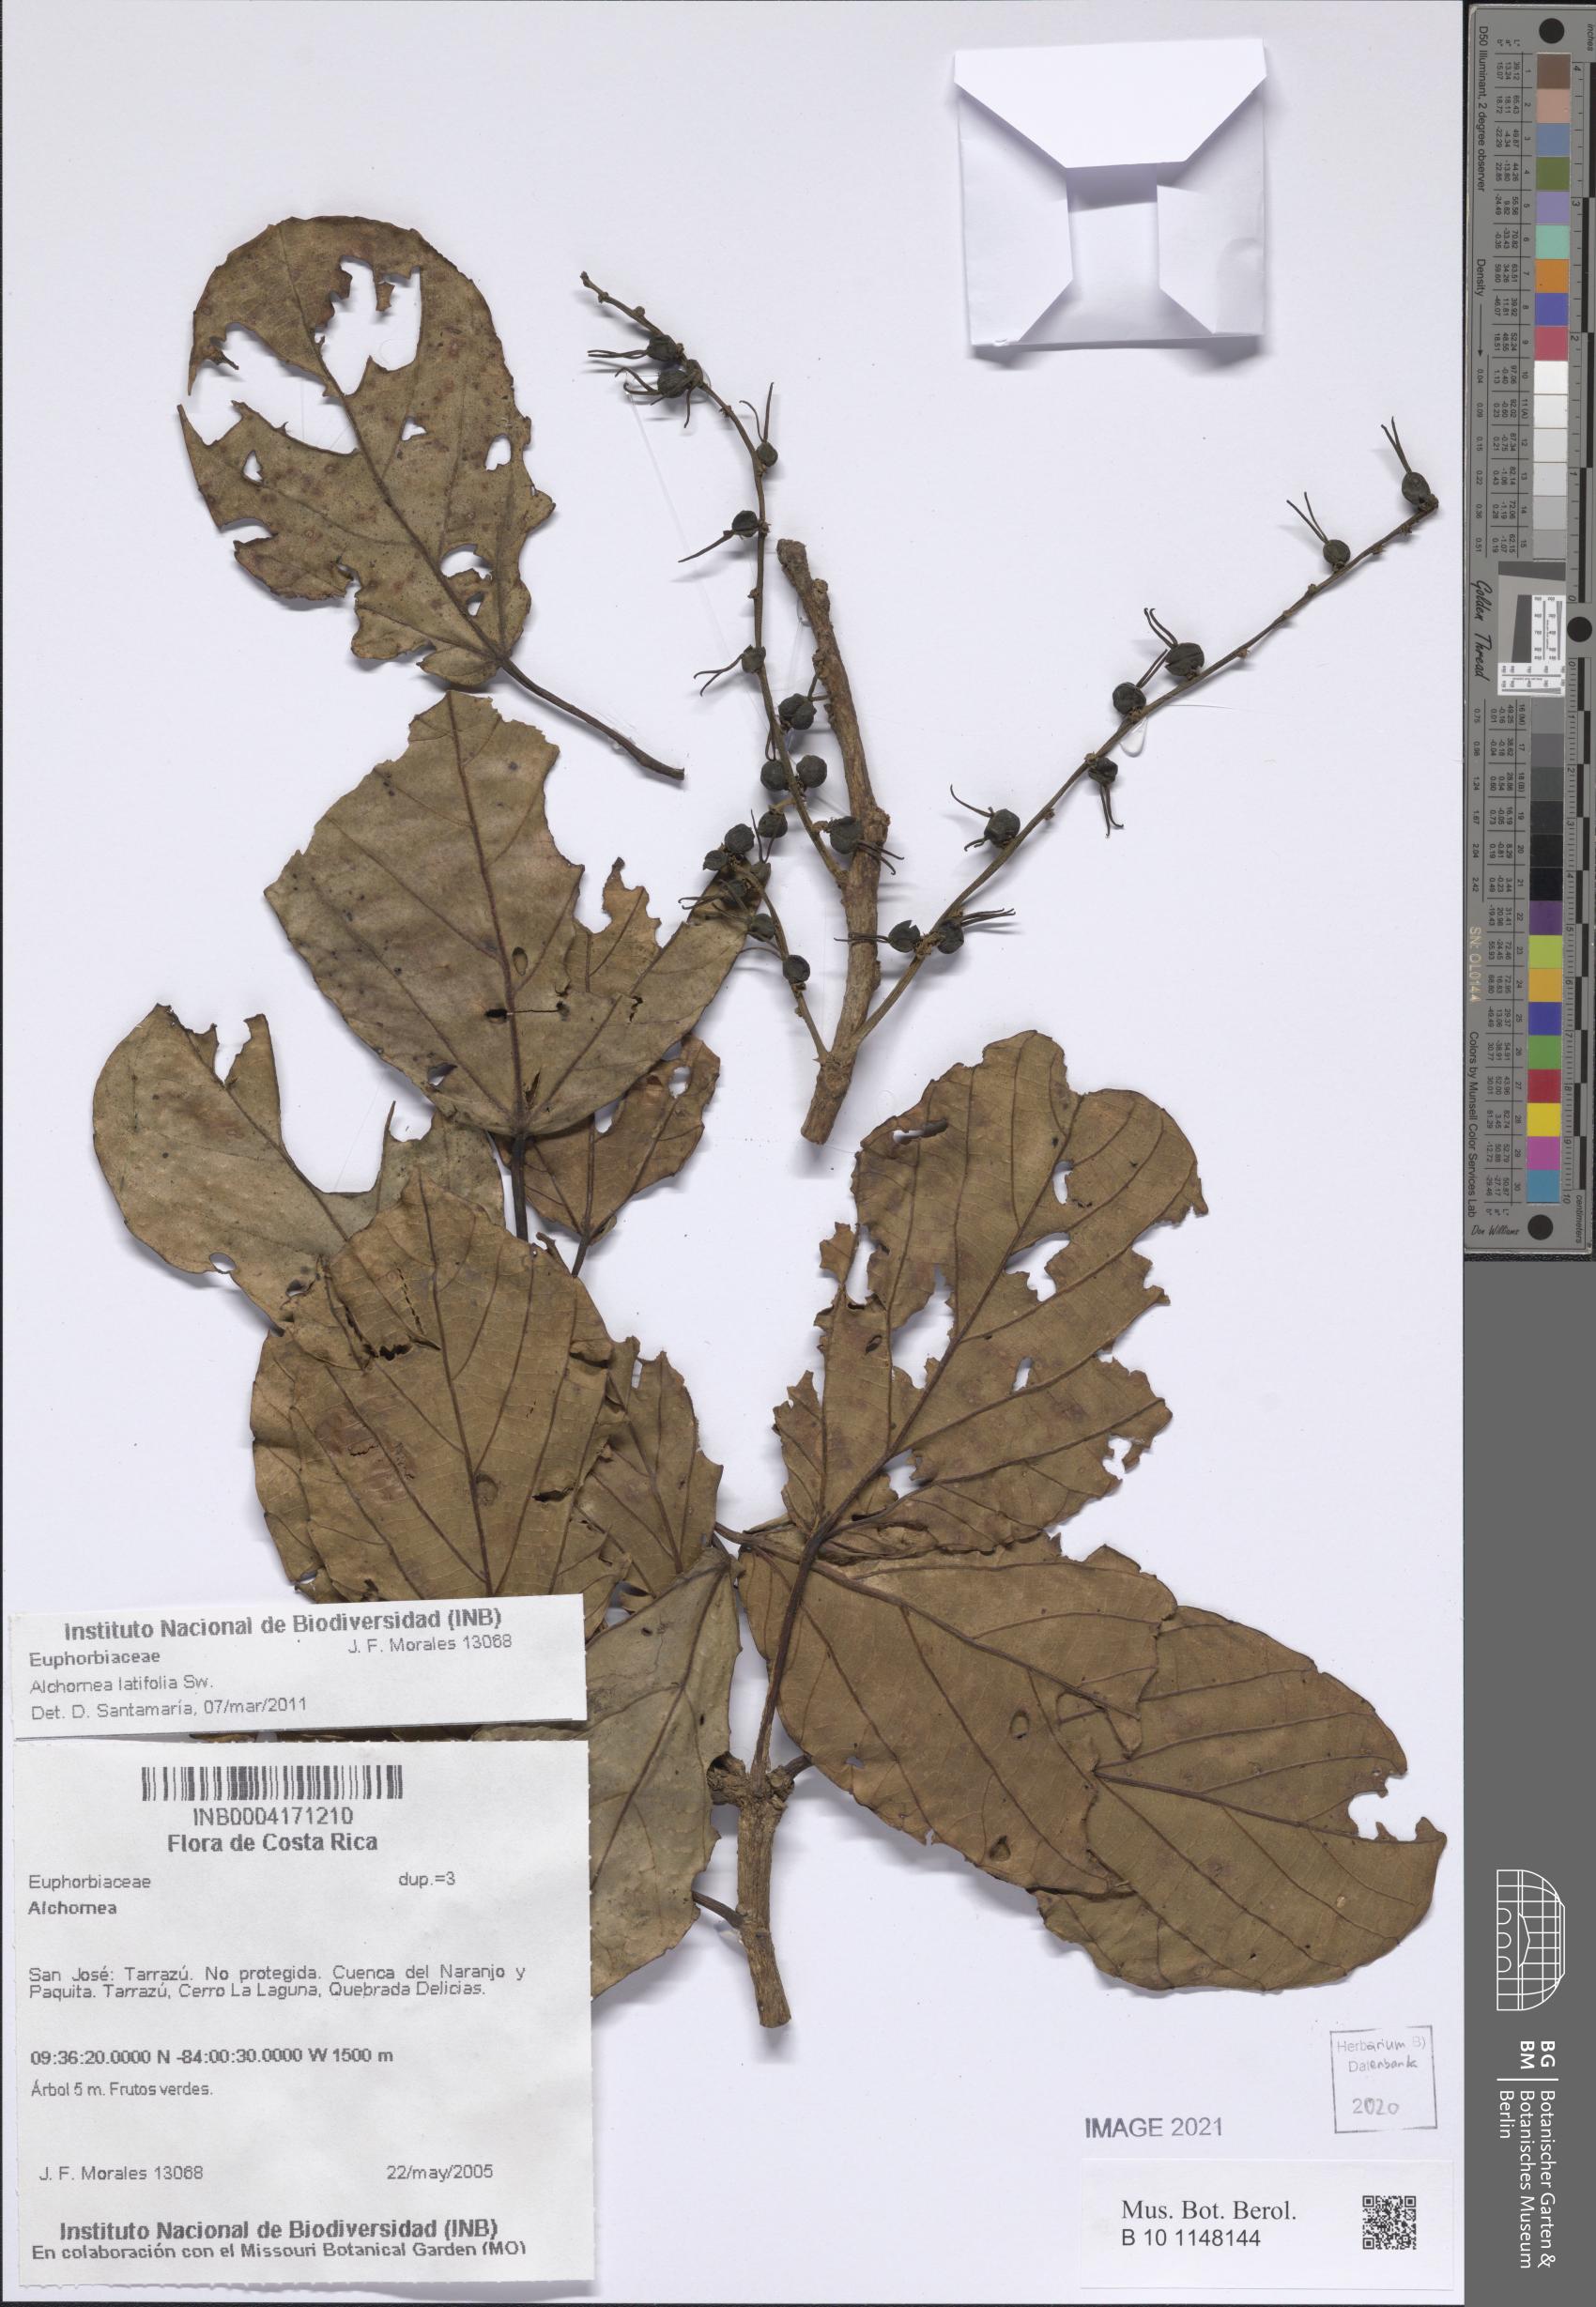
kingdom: Plantae
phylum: Tracheophyta
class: Magnoliopsida
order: Malpighiales
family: Euphorbiaceae
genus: Alchornea
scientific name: Alchornea latifolia
